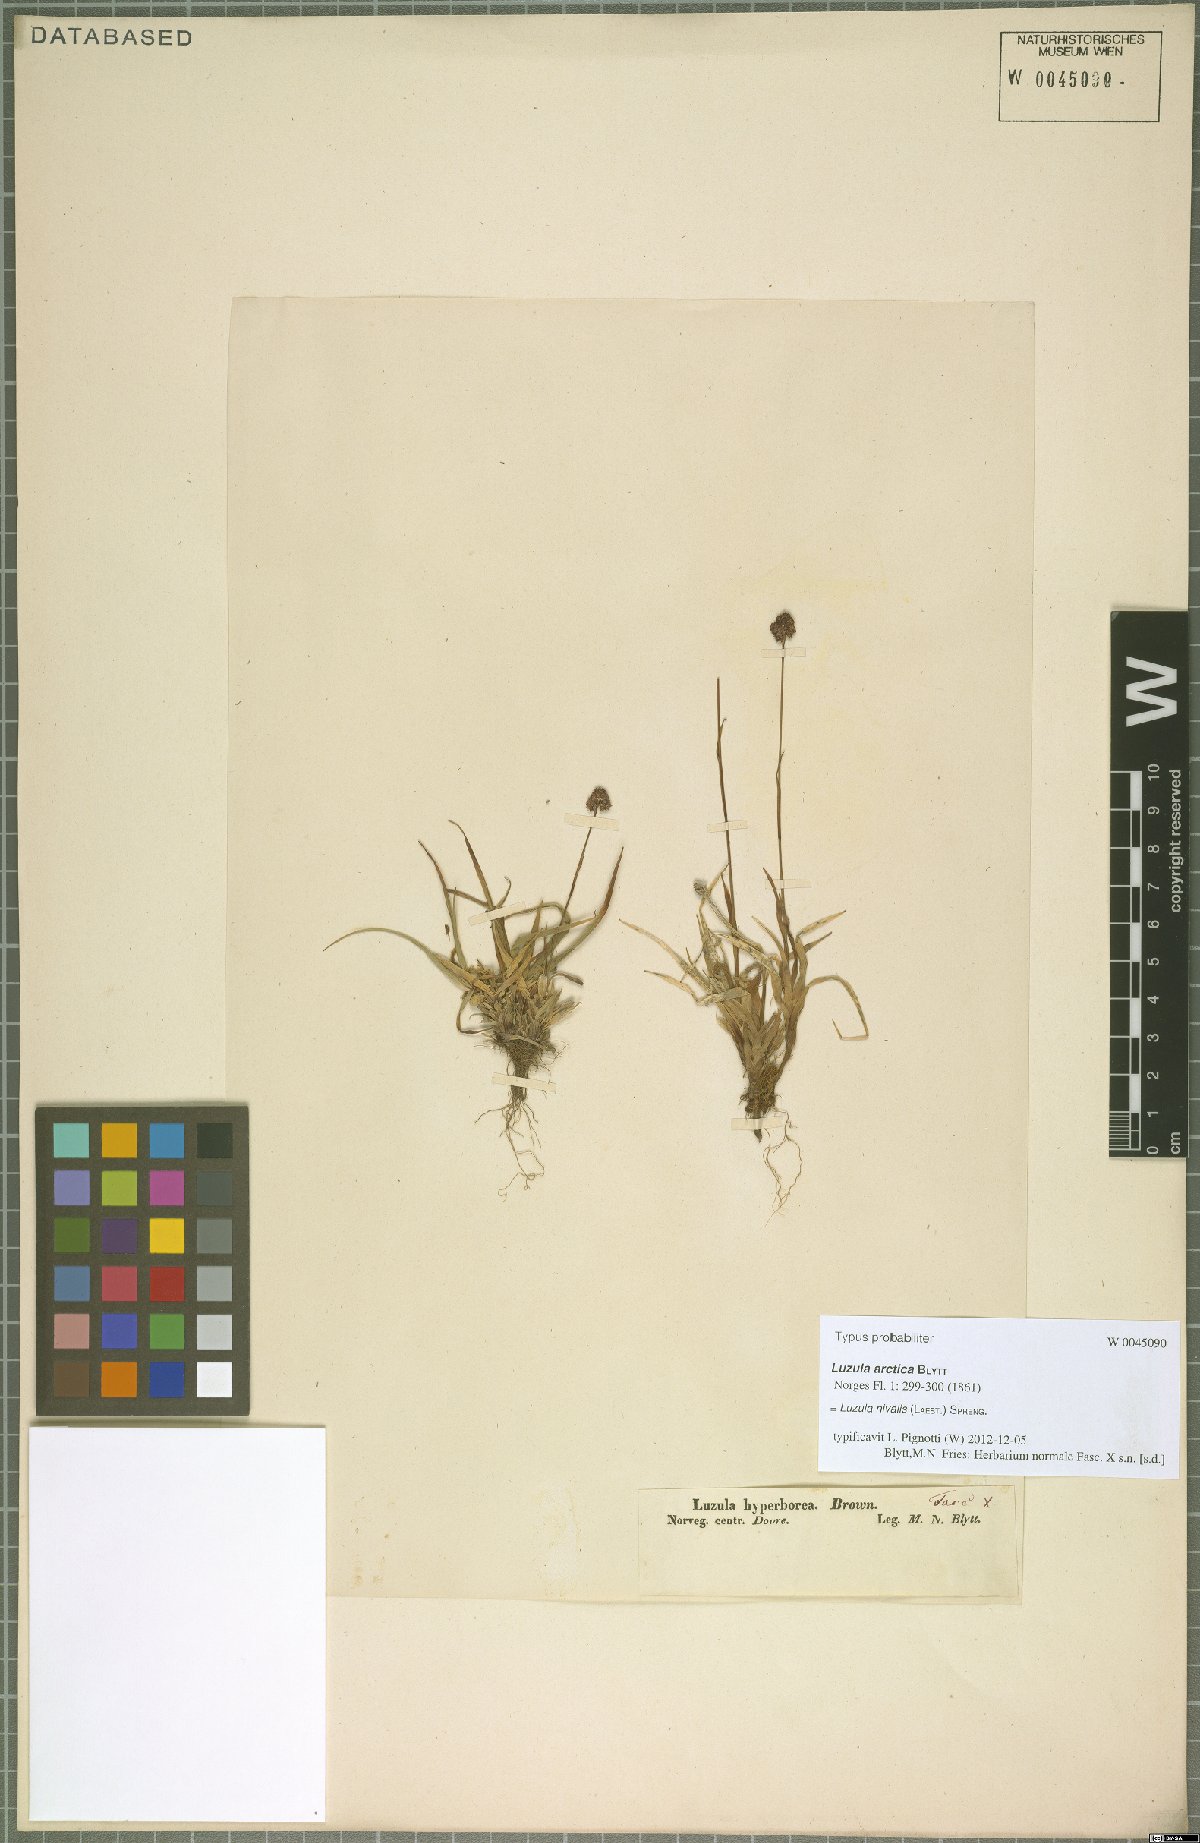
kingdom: Plantae
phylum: Tracheophyta
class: Liliopsida
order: Poales
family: Juncaceae
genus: Luzula
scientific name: Luzula nivalis
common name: Arctic woodrush
